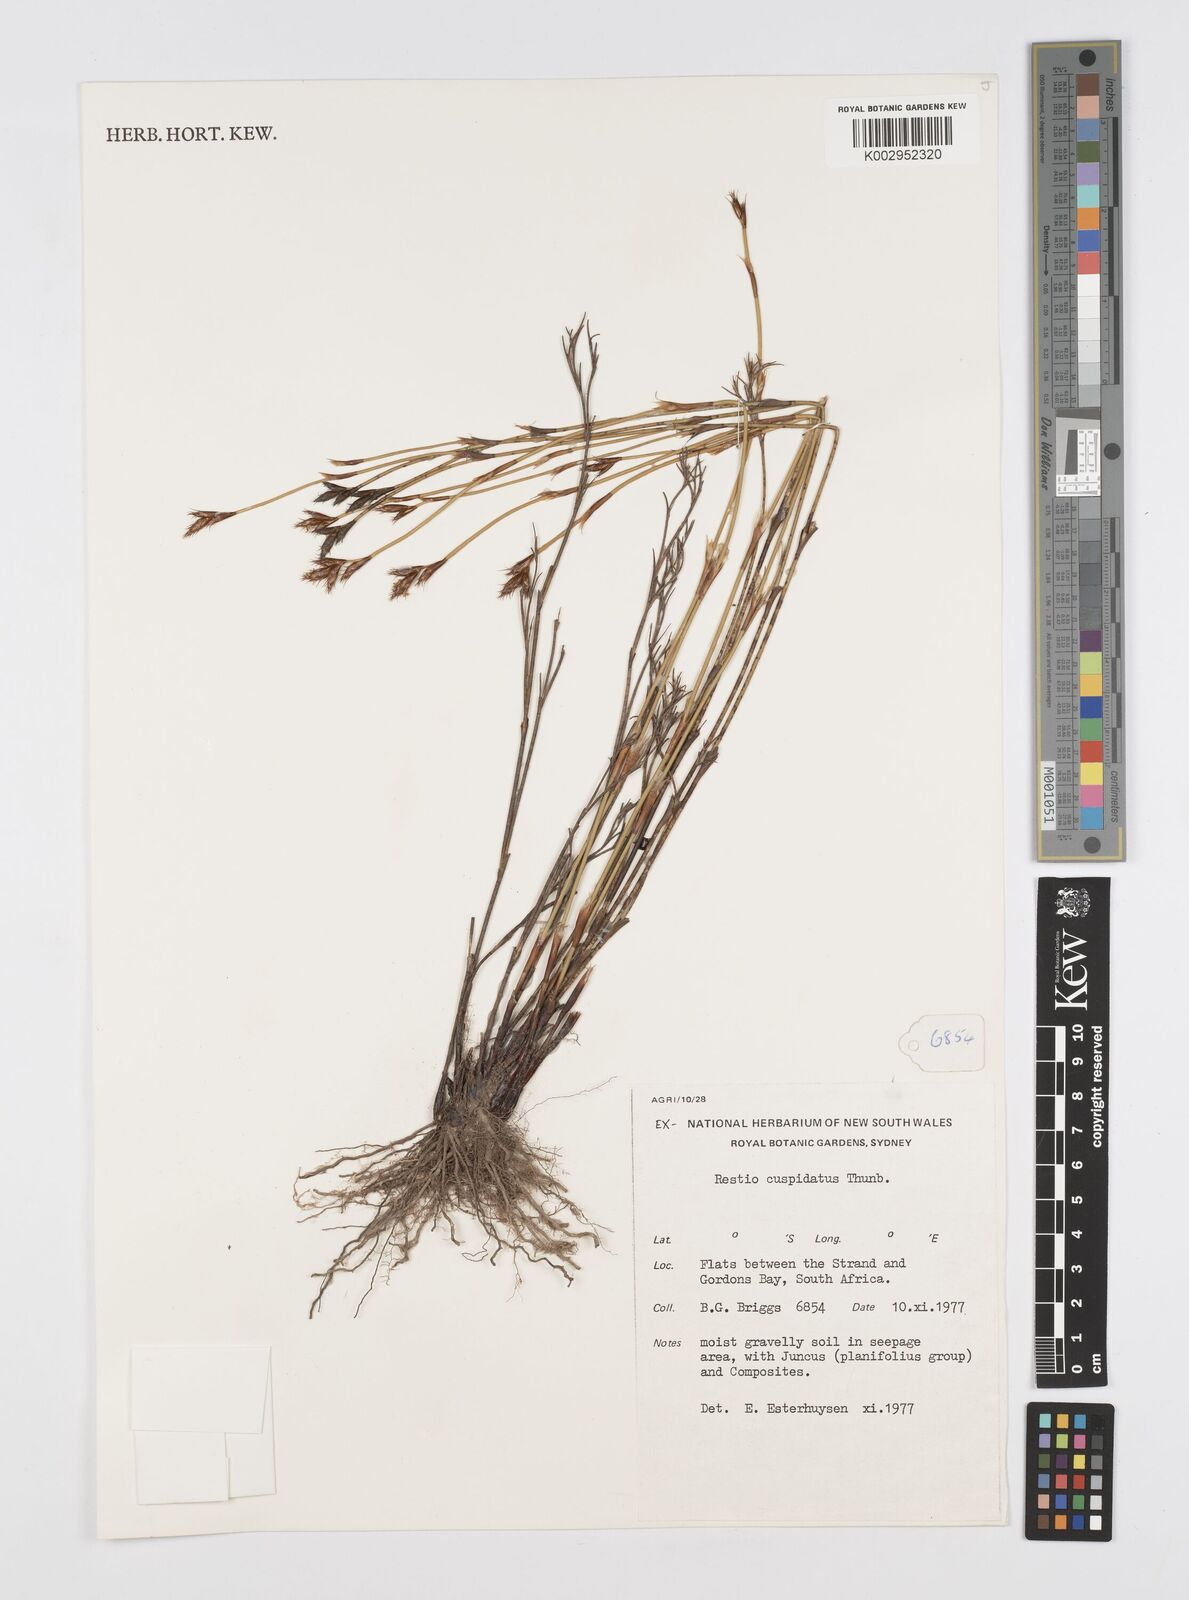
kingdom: Plantae
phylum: Tracheophyta
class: Liliopsida
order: Poales
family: Restionaceae
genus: Restio
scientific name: Restio capensis
